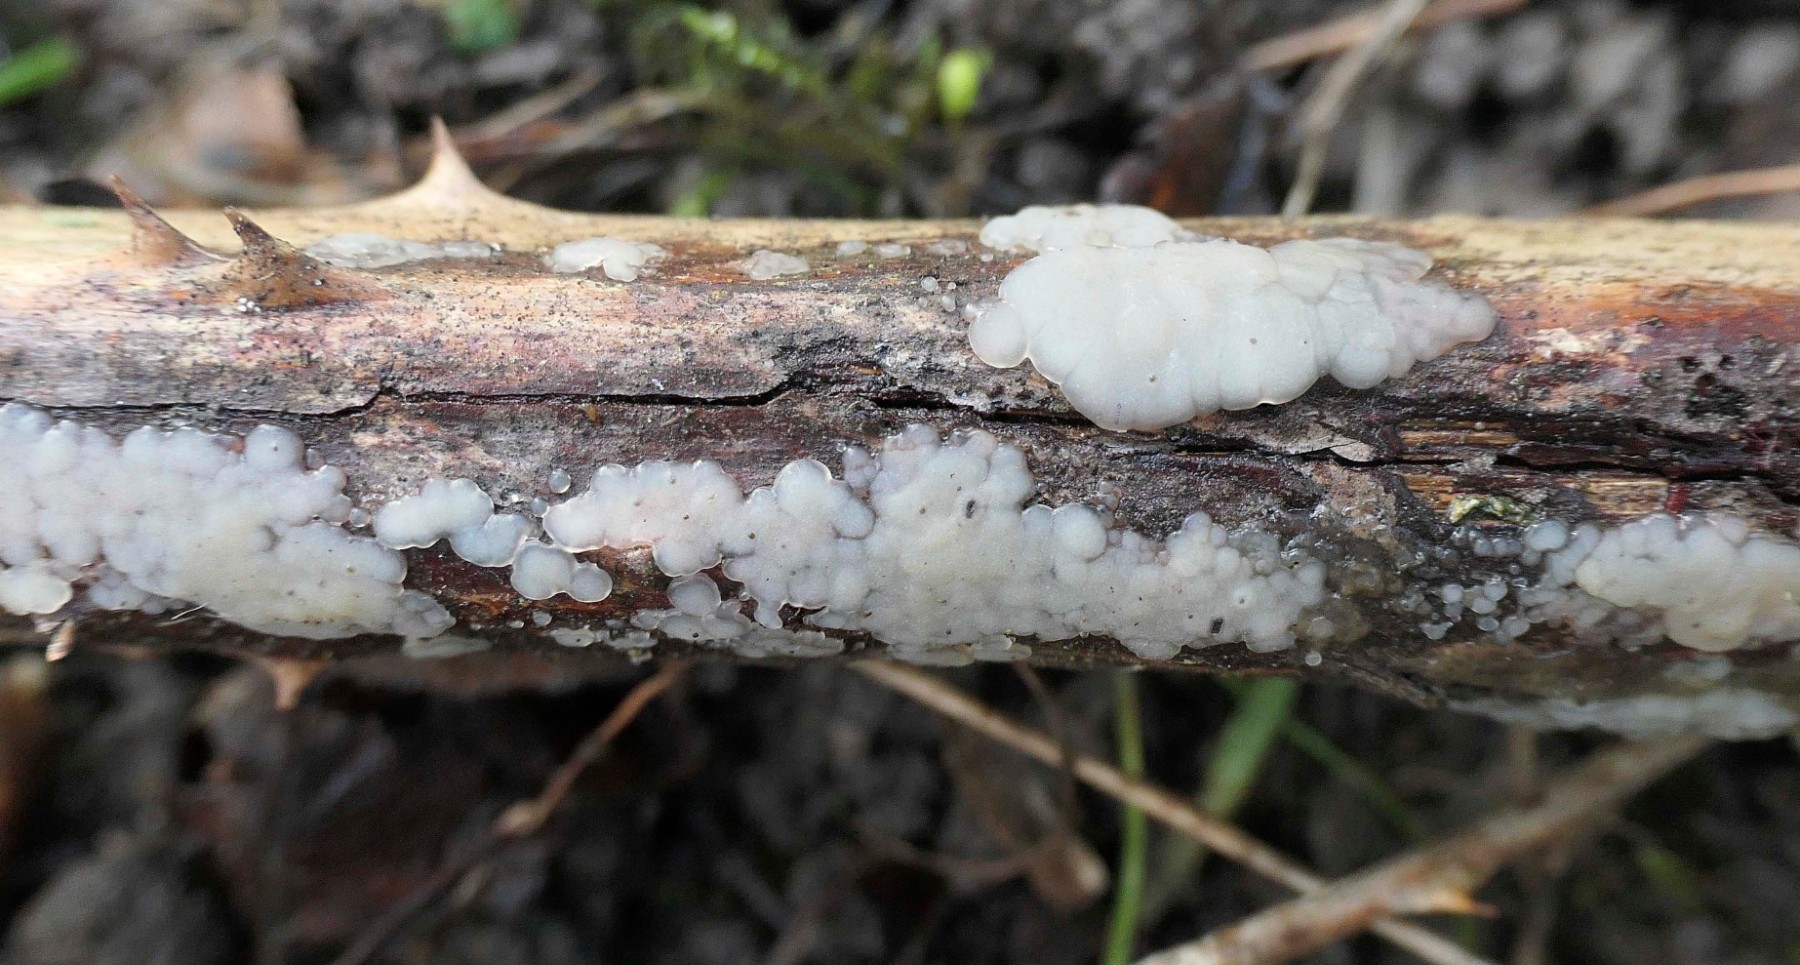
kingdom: Fungi
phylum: Basidiomycota
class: Agaricomycetes
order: Auriculariales
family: Auriculariaceae
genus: Exidia
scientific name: Exidia thuretiana
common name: hvidlig bævretop
